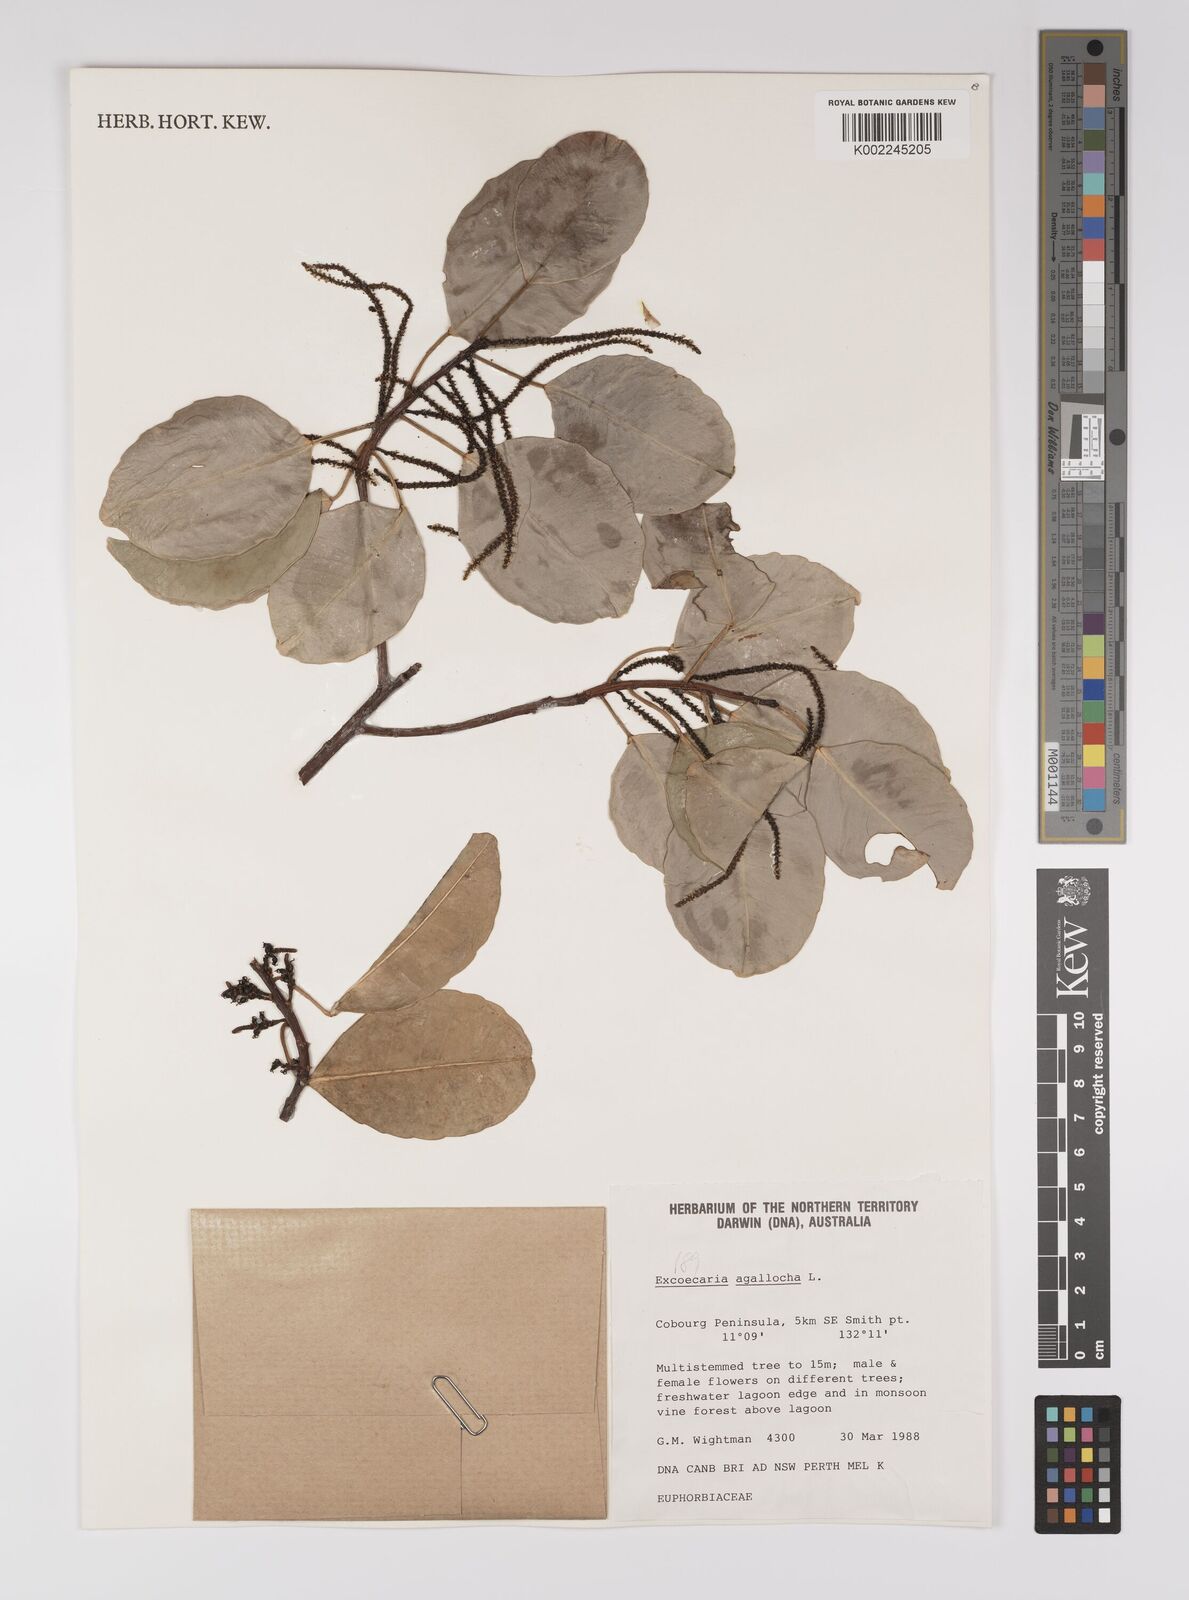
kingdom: Plantae
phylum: Tracheophyta
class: Magnoliopsida
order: Malpighiales
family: Euphorbiaceae
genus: Excoecaria
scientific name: Excoecaria agallocha
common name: River poisontree
